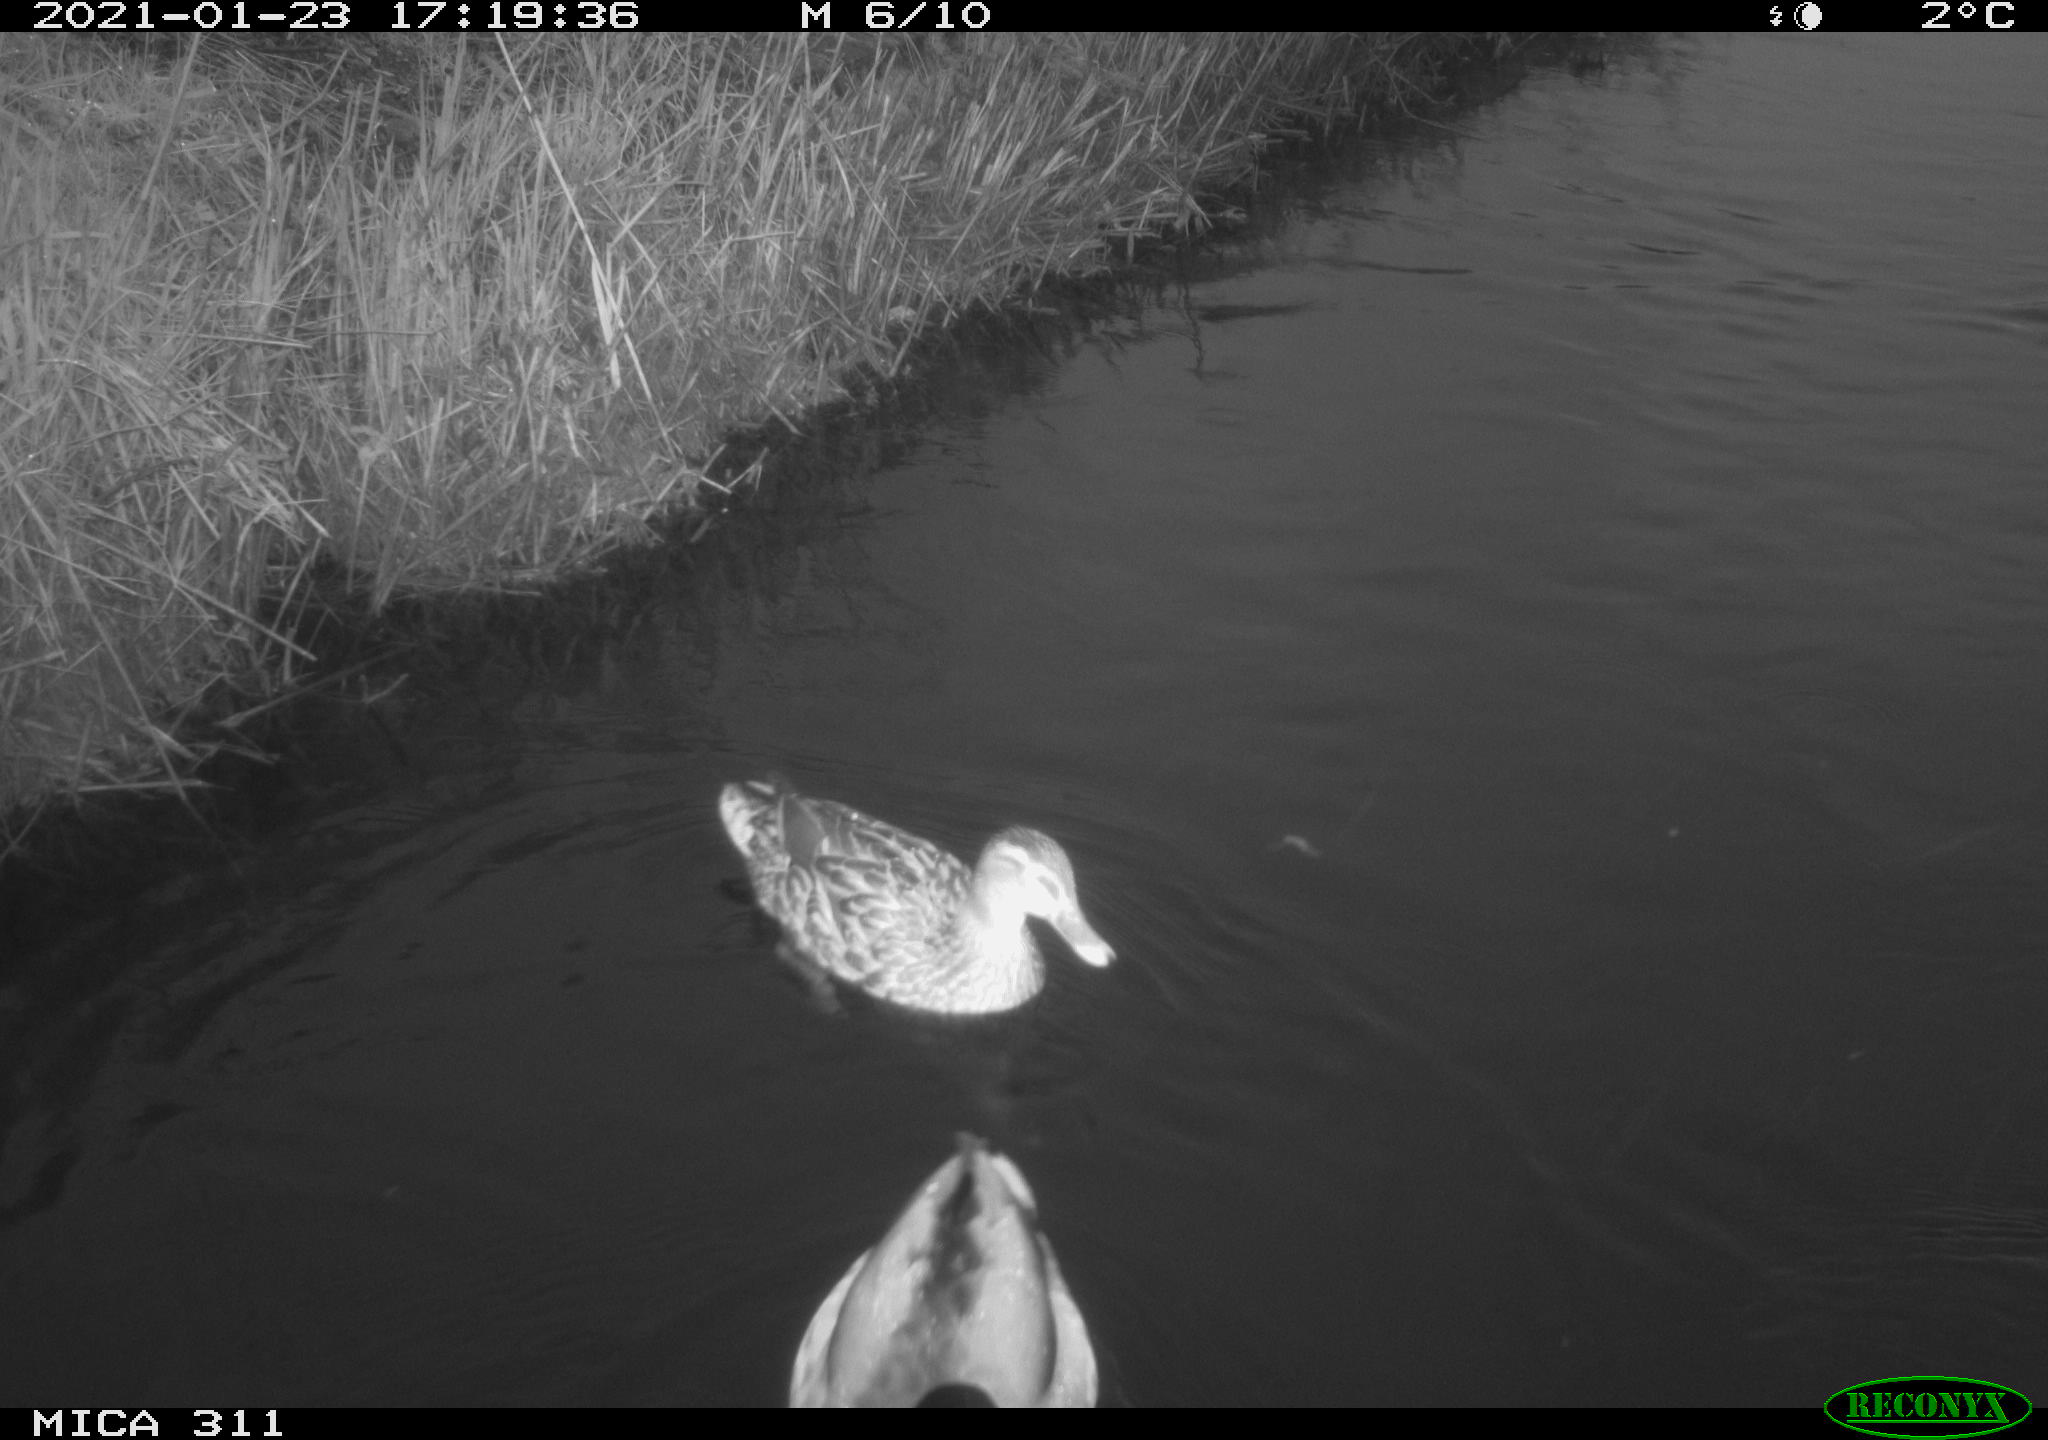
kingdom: Animalia
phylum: Chordata
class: Aves
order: Anseriformes
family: Anatidae
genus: Anas
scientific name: Anas
